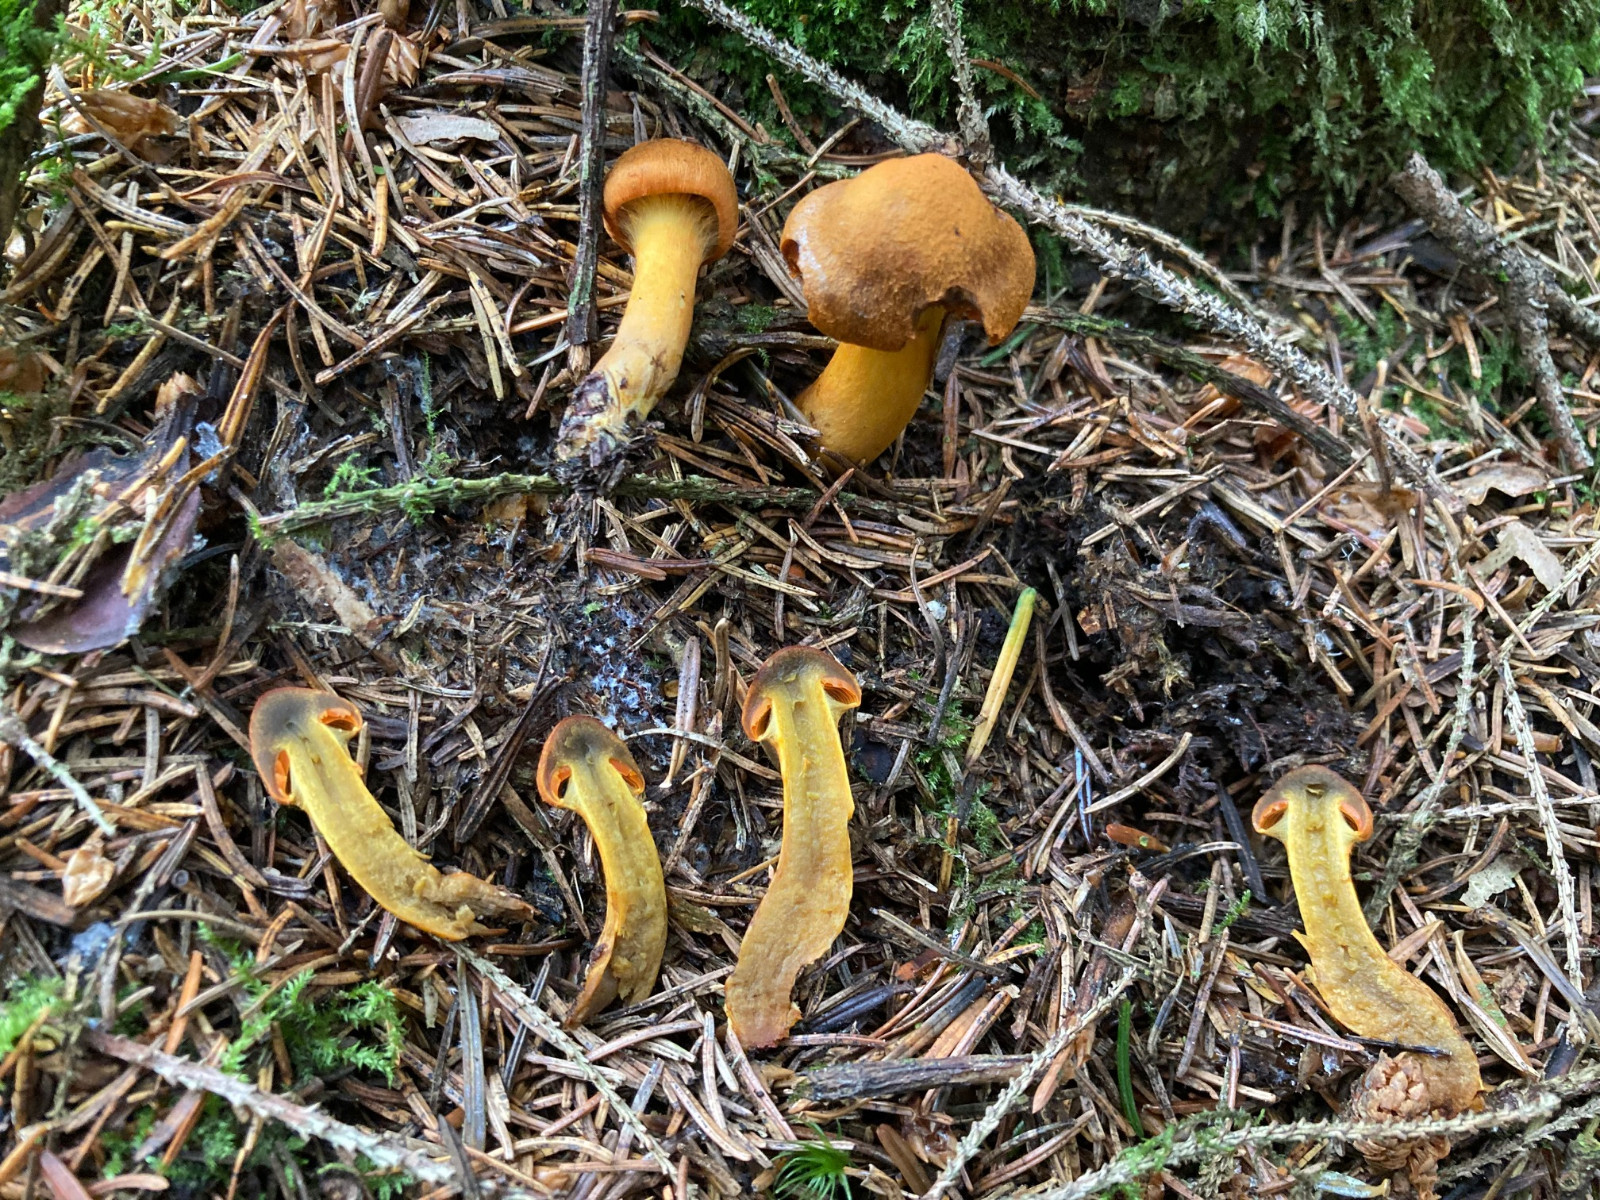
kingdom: Fungi
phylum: Basidiomycota
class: Agaricomycetes
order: Agaricales
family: Cortinariaceae
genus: Cortinarius
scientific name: Cortinarius malicorius
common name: grønkødet slørhat
